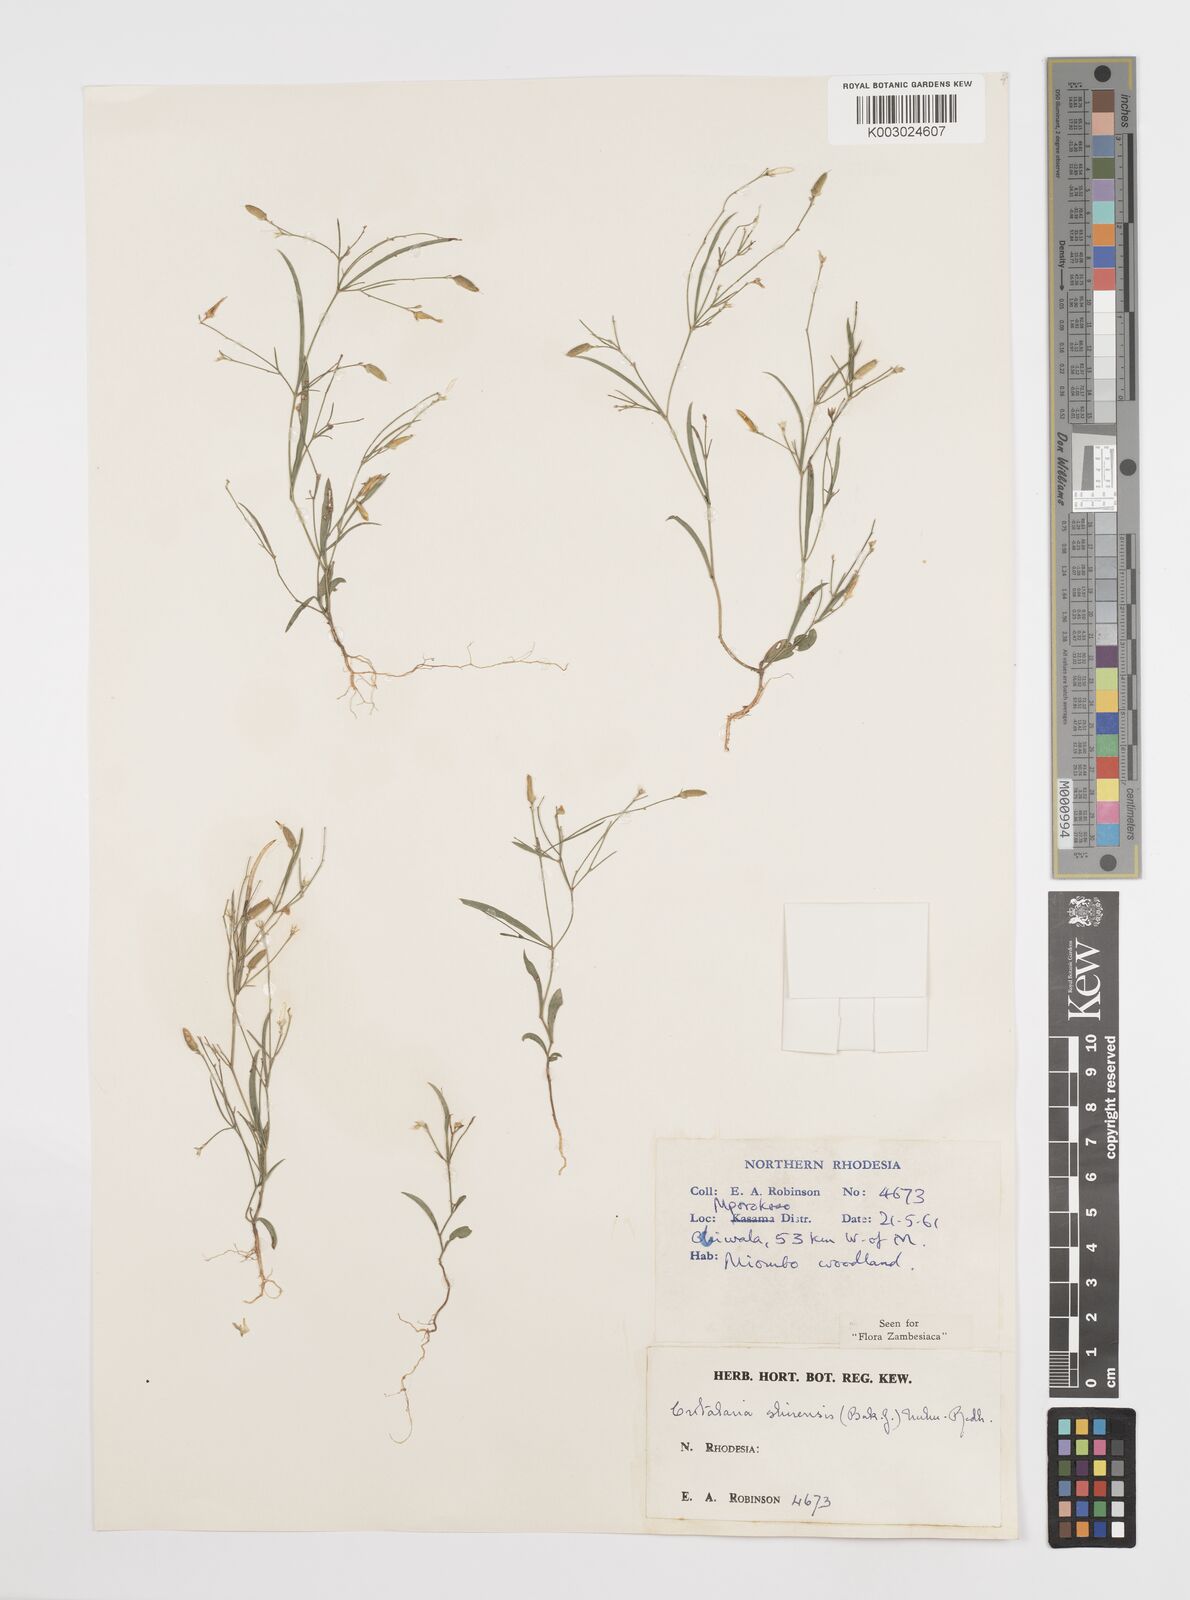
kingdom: Plantae
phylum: Tracheophyta
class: Magnoliopsida
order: Fabales
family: Fabaceae
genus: Crotalaria
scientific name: Crotalaria shirensis
